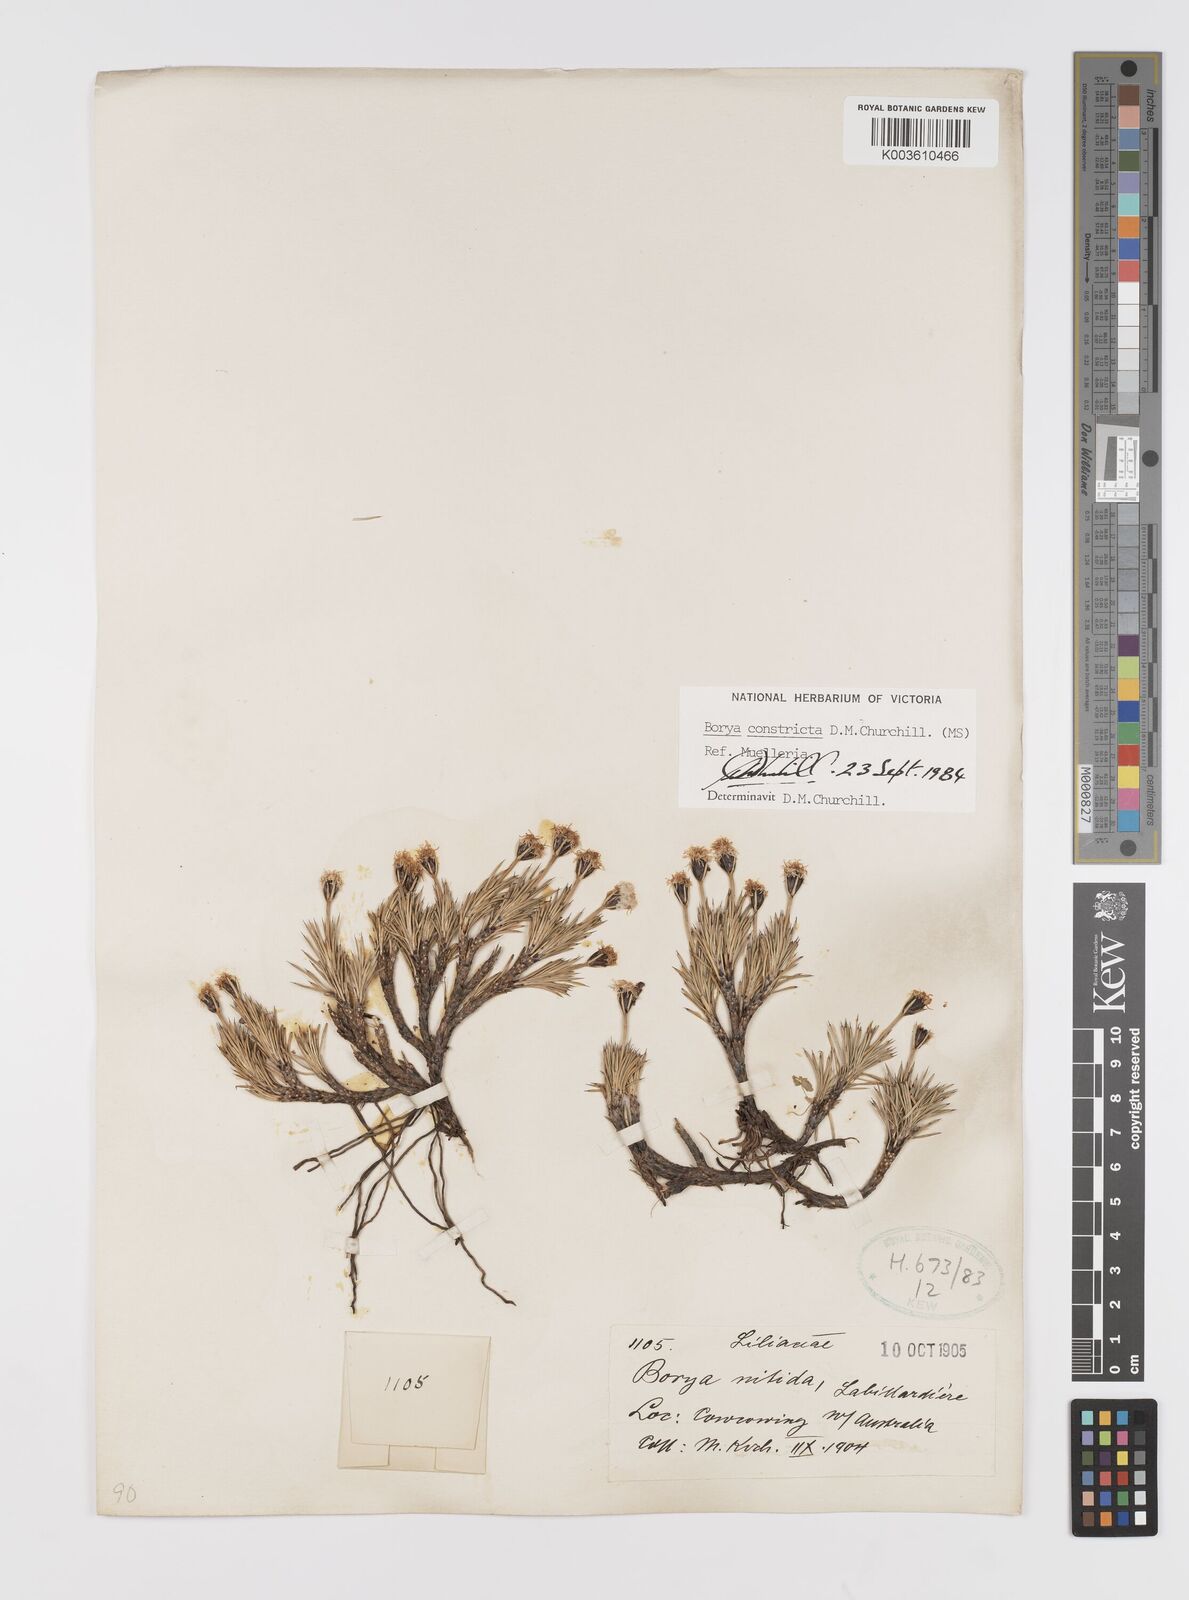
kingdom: Plantae
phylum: Tracheophyta
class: Liliopsida
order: Asparagales
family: Boryaceae
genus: Borya
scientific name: Borya constricta
